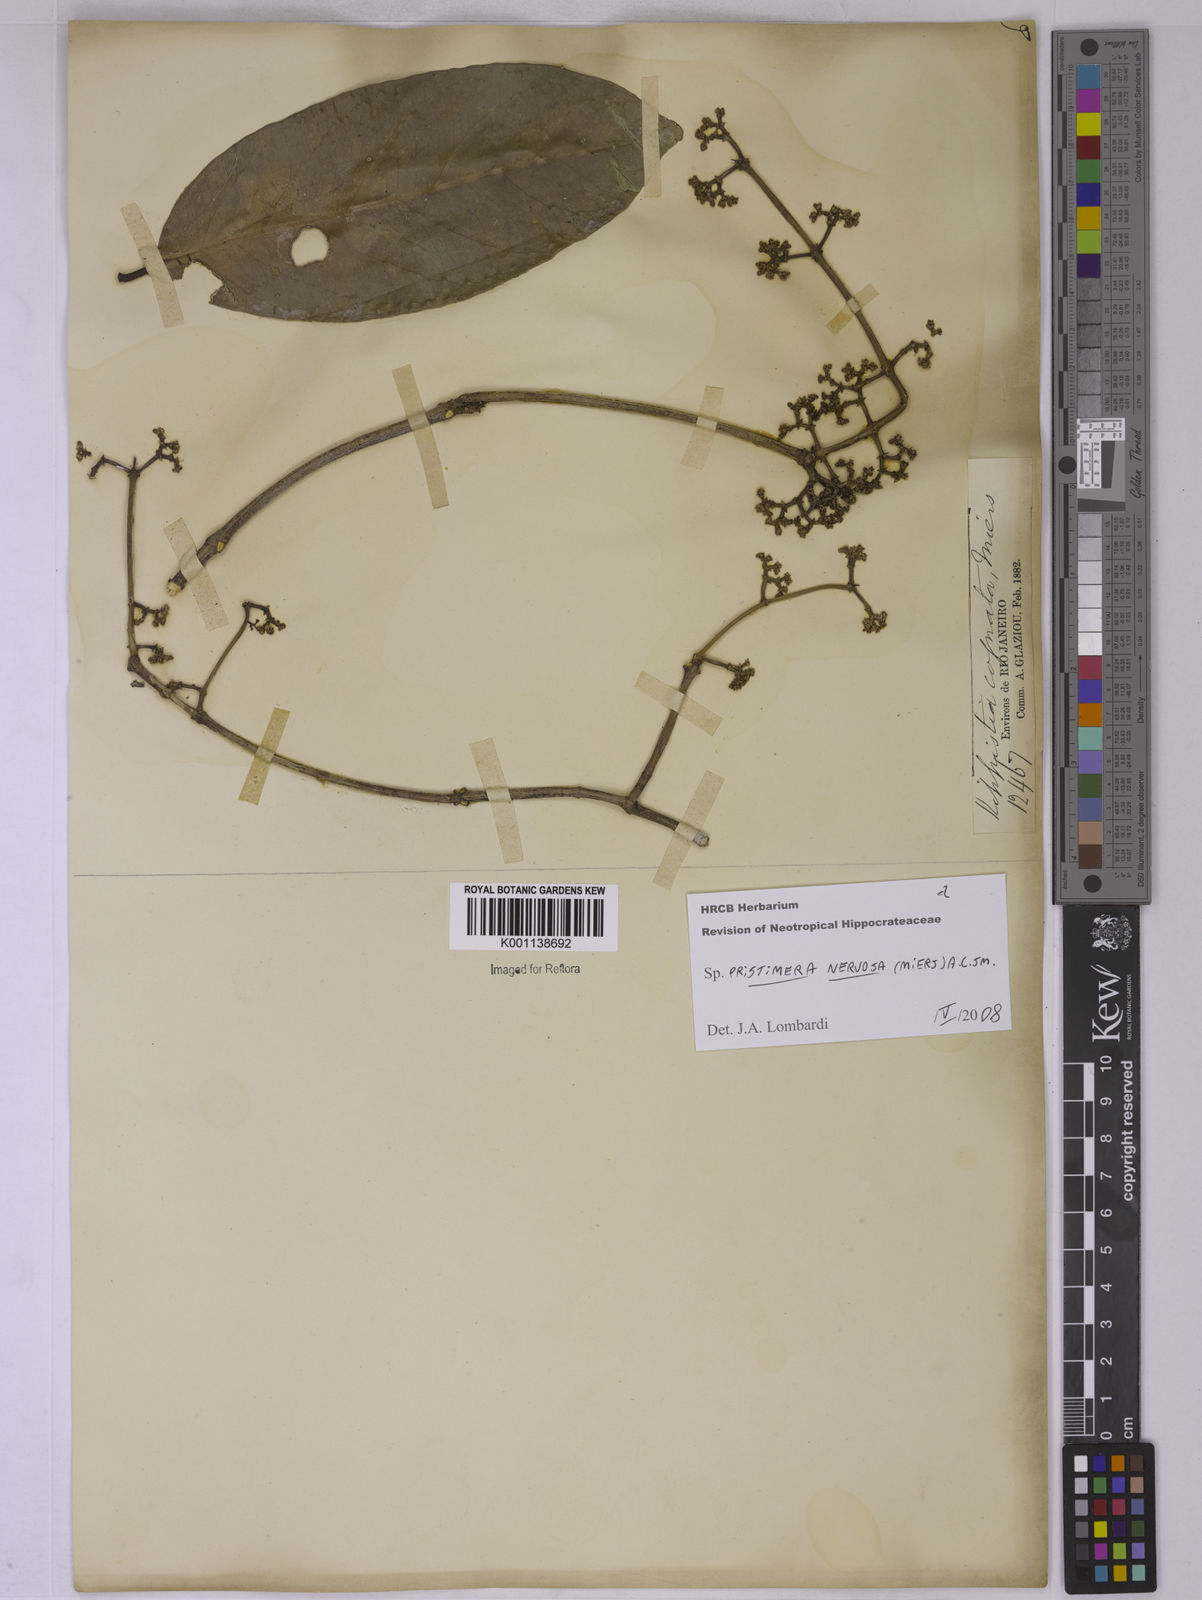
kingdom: Plantae
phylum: Tracheophyta
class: Magnoliopsida
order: Celastrales
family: Celastraceae
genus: Pristimera
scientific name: Pristimera nervosa
